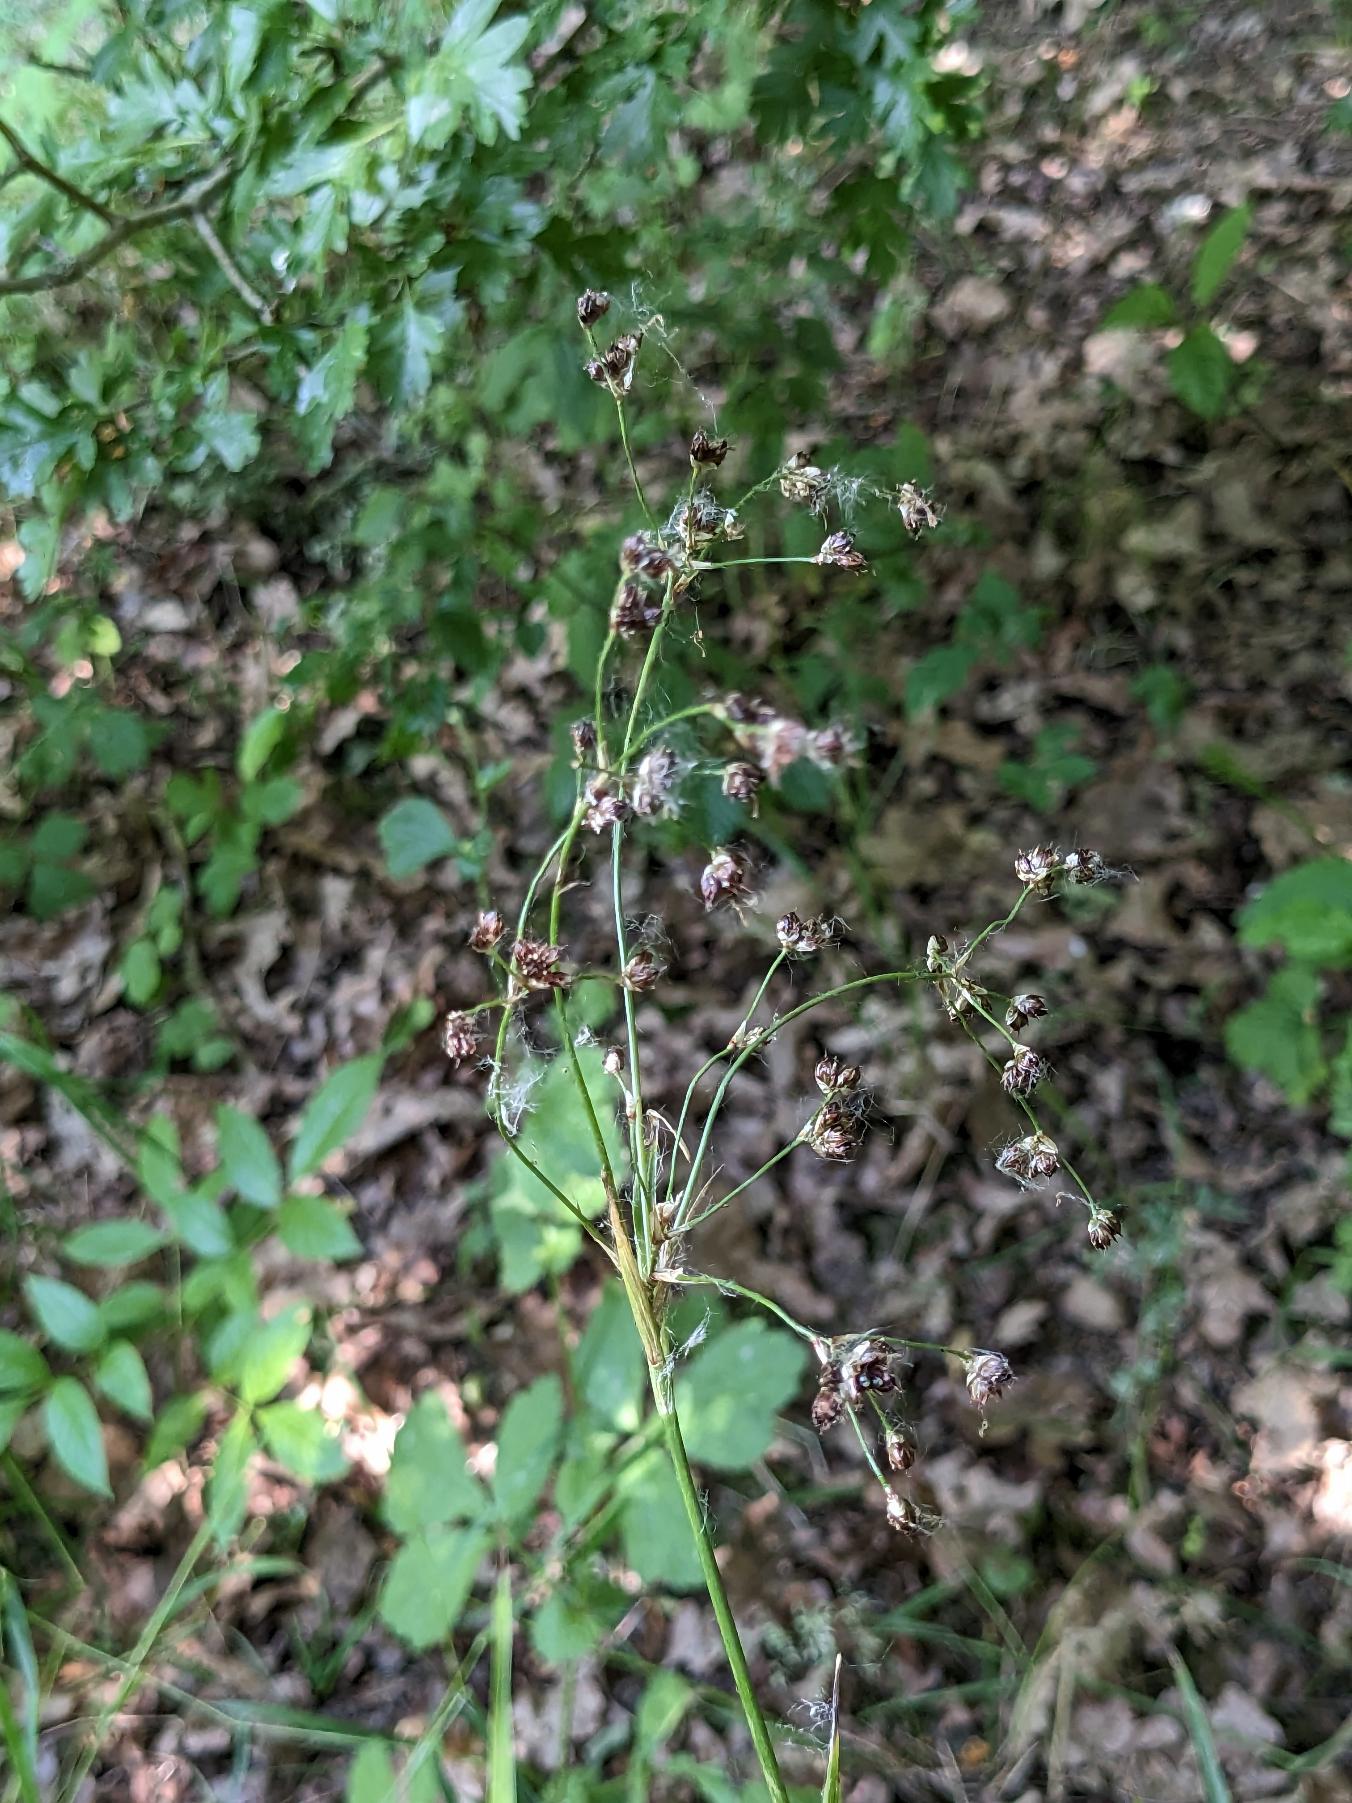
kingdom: Plantae
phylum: Tracheophyta
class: Liliopsida
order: Poales
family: Juncaceae
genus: Luzula
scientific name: Luzula sylvatica
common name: Stor frytle
